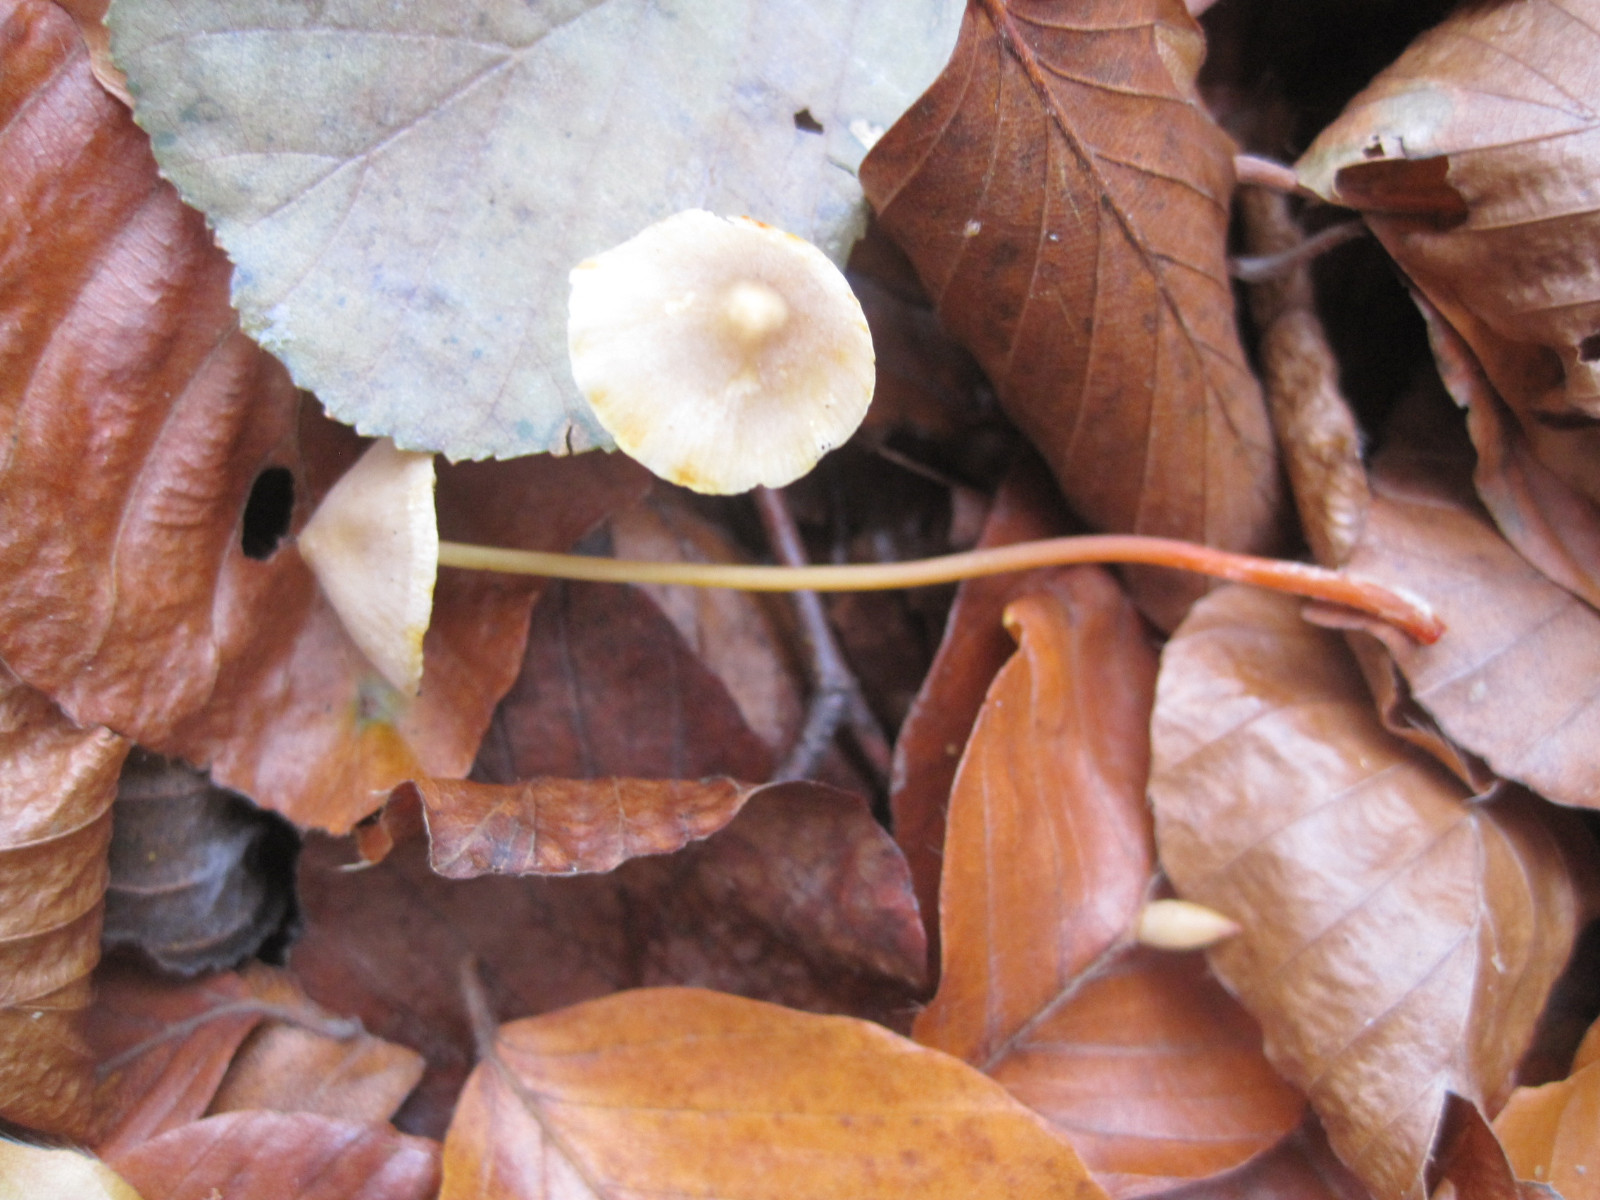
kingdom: Fungi
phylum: Basidiomycota
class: Agaricomycetes
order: Agaricales
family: Mycenaceae
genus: Mycena
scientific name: Mycena crocata
